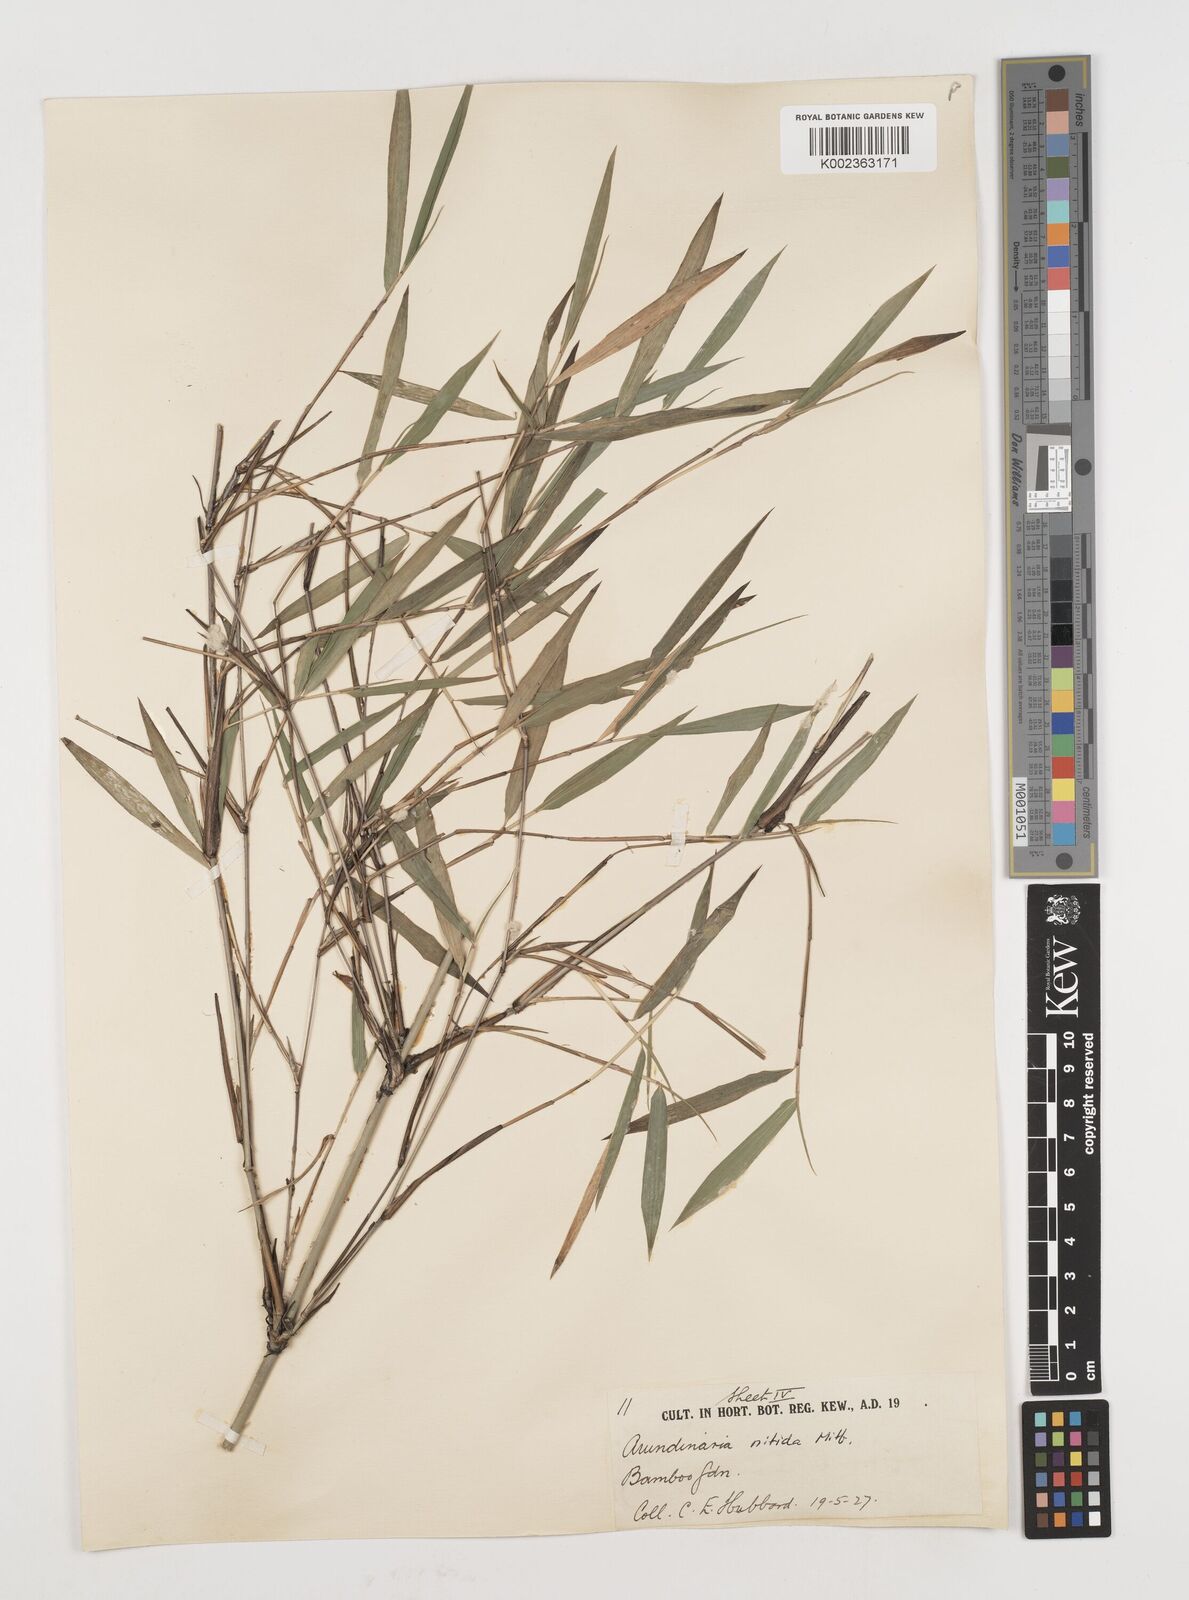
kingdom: Plantae
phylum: Tracheophyta
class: Liliopsida
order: Poales
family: Poaceae
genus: Fargesia
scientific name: Fargesia nitida ex
